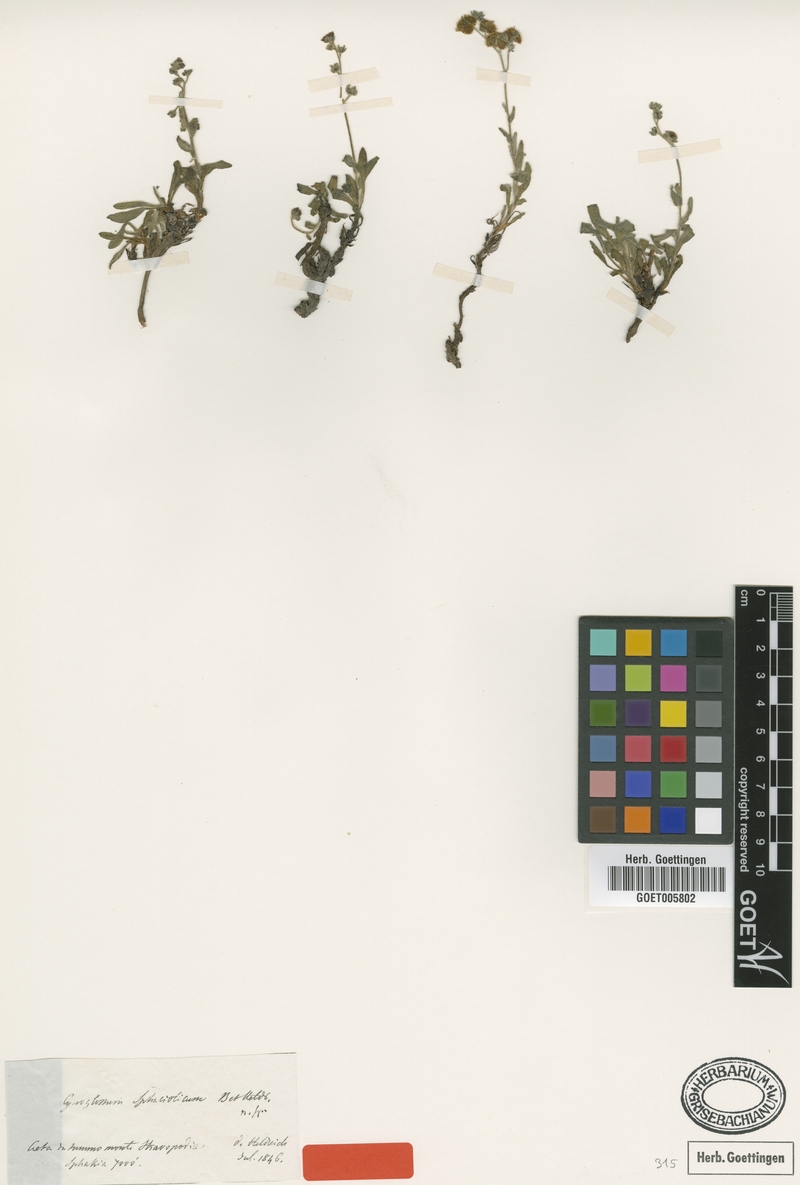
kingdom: Plantae
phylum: Tracheophyta
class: Magnoliopsida
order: Boraginales
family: Boraginaceae
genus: Cynoglossum
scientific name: Cynoglossum sphacioticum
